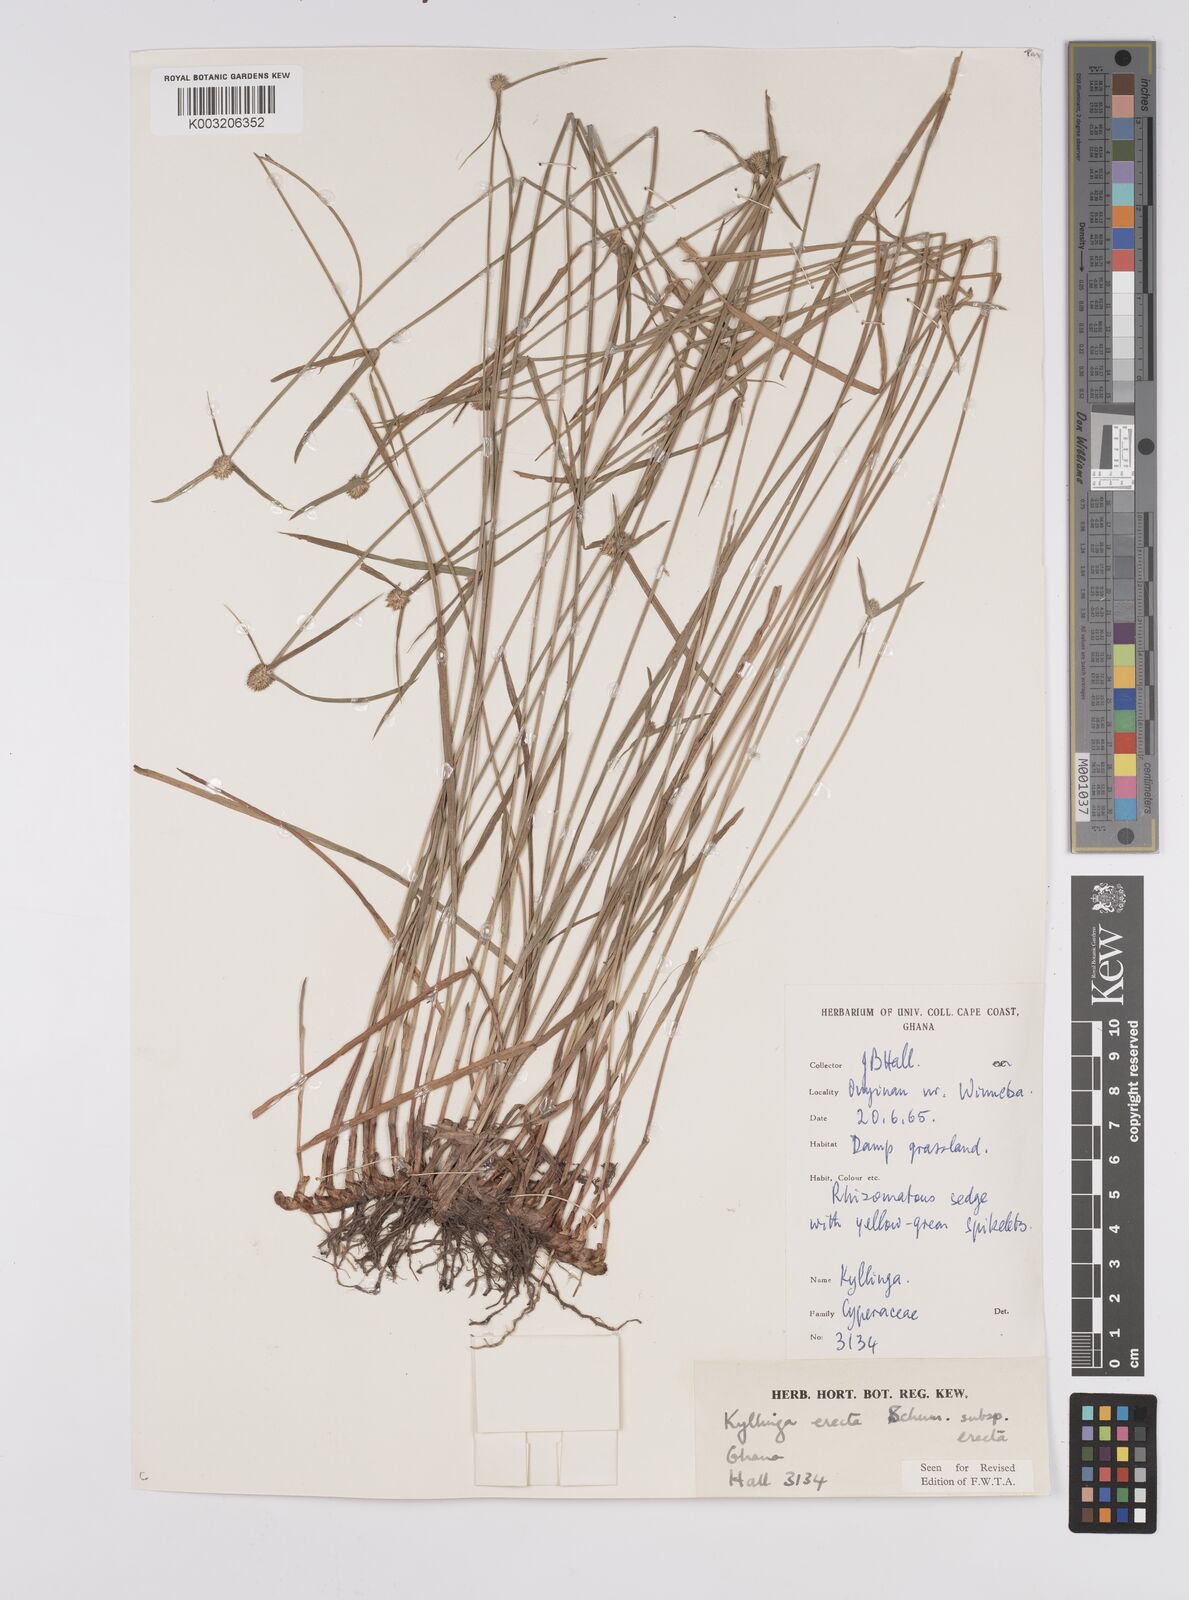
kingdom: Plantae
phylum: Tracheophyta
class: Liliopsida
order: Poales
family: Cyperaceae
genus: Cyperus
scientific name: Cyperus erectus
